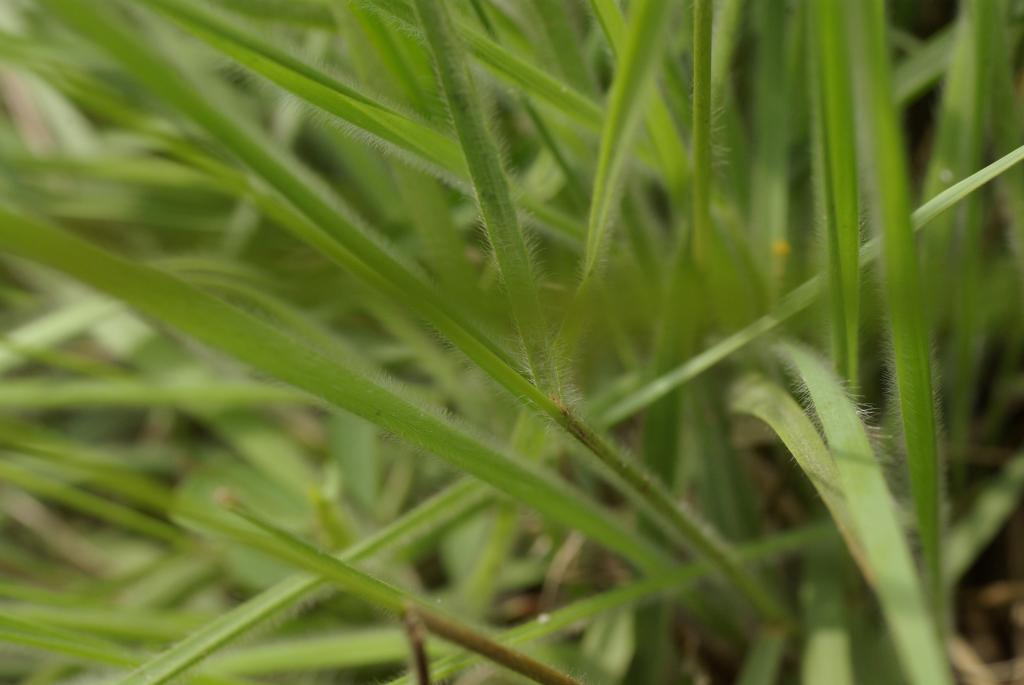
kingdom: Plantae
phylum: Tracheophyta
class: Liliopsida
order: Poales
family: Poaceae
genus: Panicum
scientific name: Panicum curviflorum
